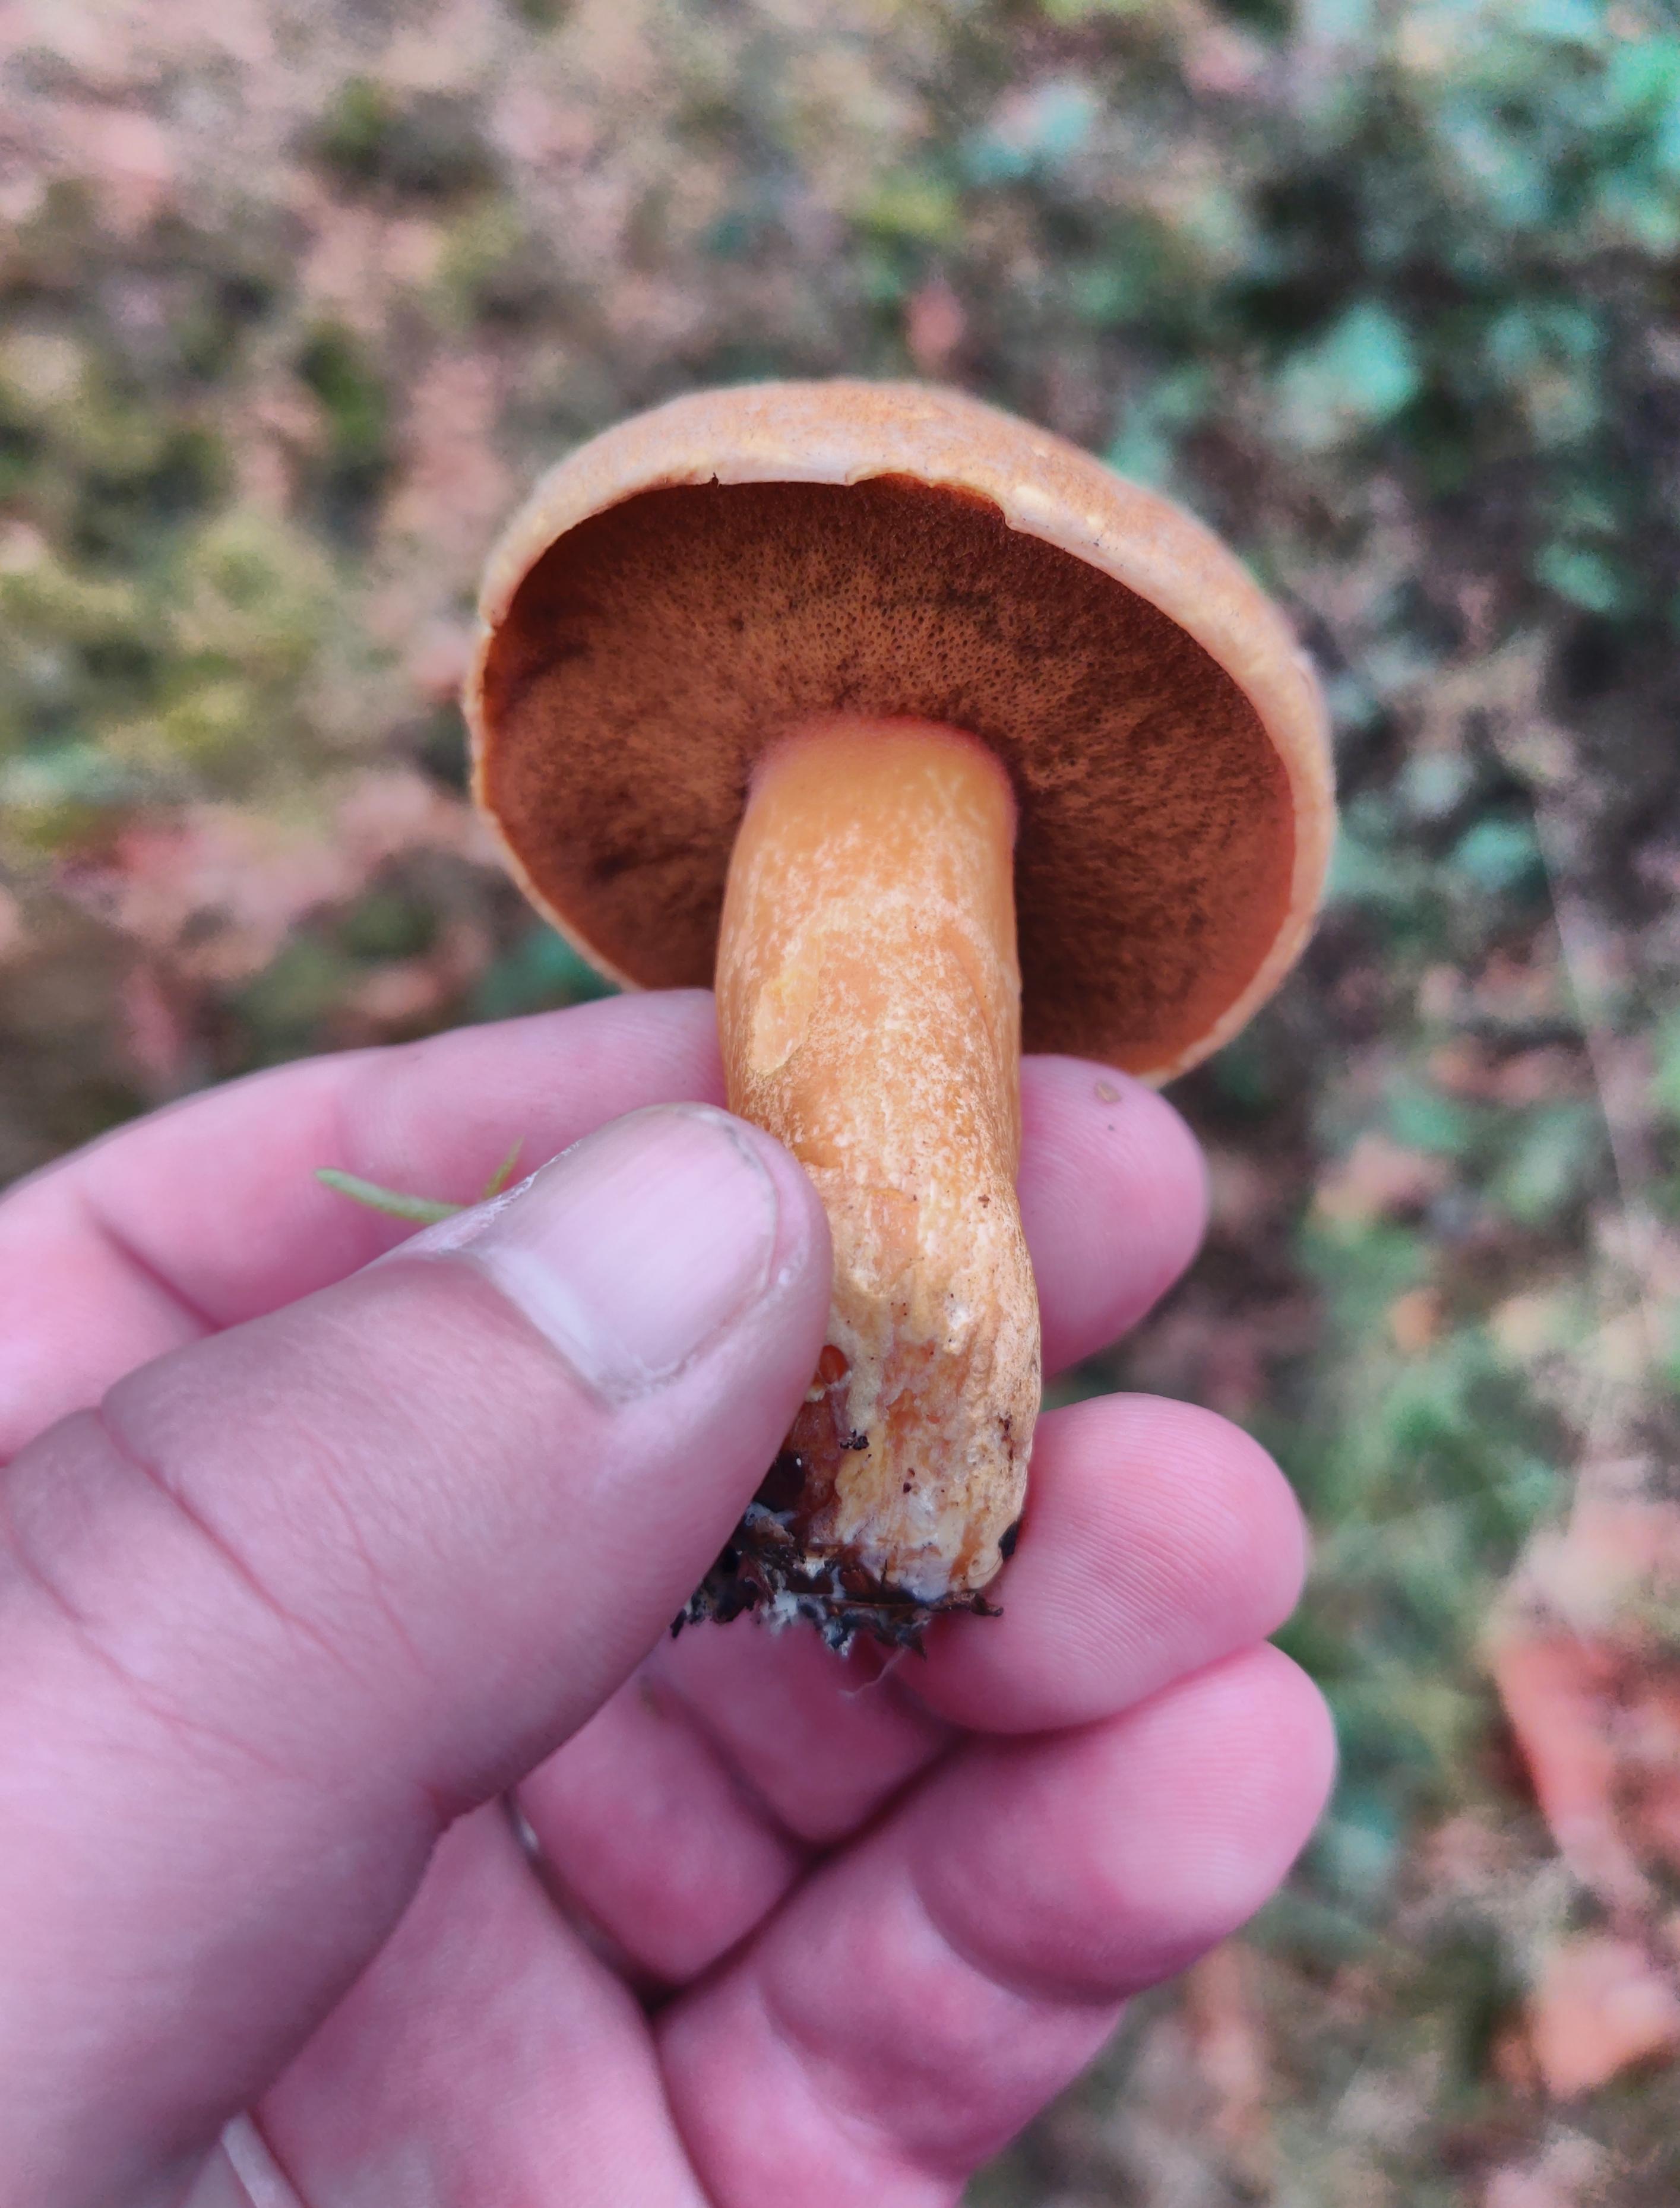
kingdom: Fungi
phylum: Basidiomycota
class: Agaricomycetes
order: Boletales
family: Suillaceae
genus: Suillus
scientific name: Suillus variegatus
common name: broget slimrørhat
